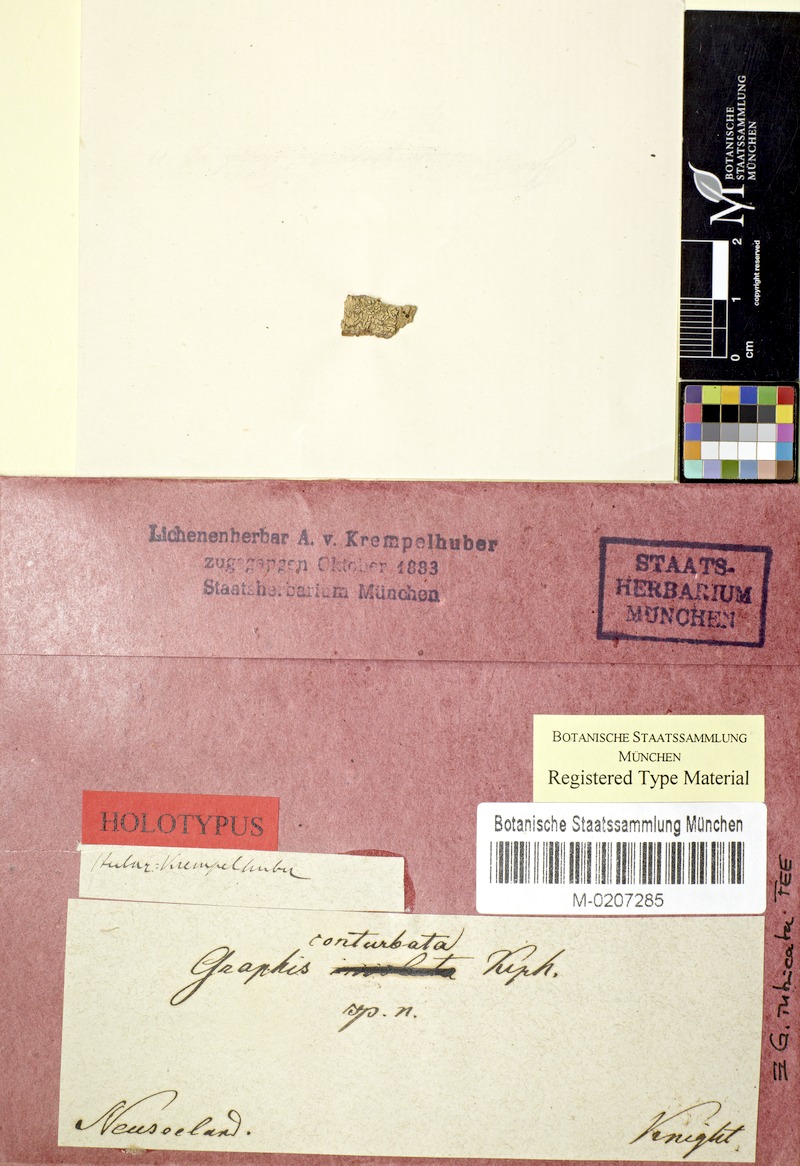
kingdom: Fungi
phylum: Ascomycota
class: Lecanoromycetes
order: Ostropales
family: Graphidaceae
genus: Graphis
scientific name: Graphis
